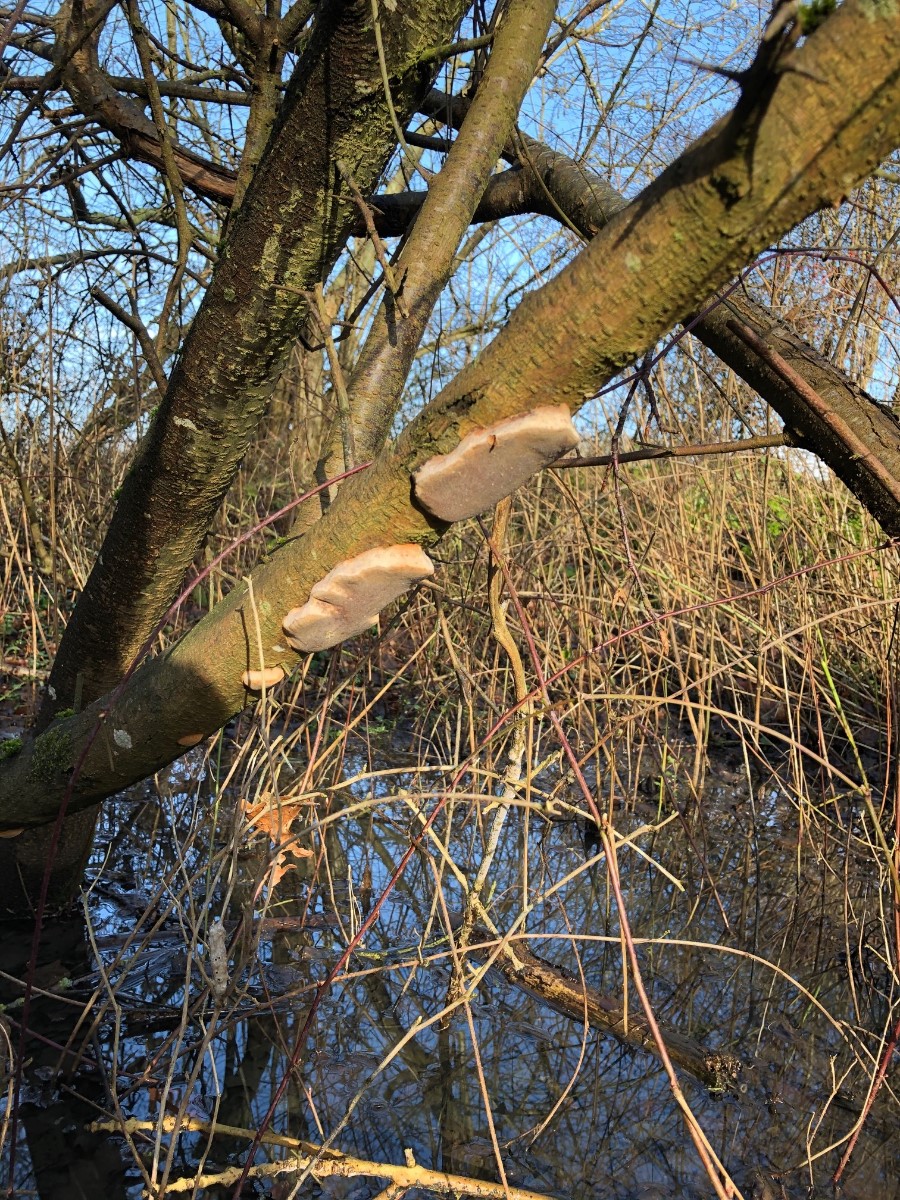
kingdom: Fungi
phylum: Basidiomycota
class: Agaricomycetes
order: Hymenochaetales
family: Hymenochaetaceae
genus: Phellinus
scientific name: Phellinus pomaceus
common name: blomme-ildporesvamp
